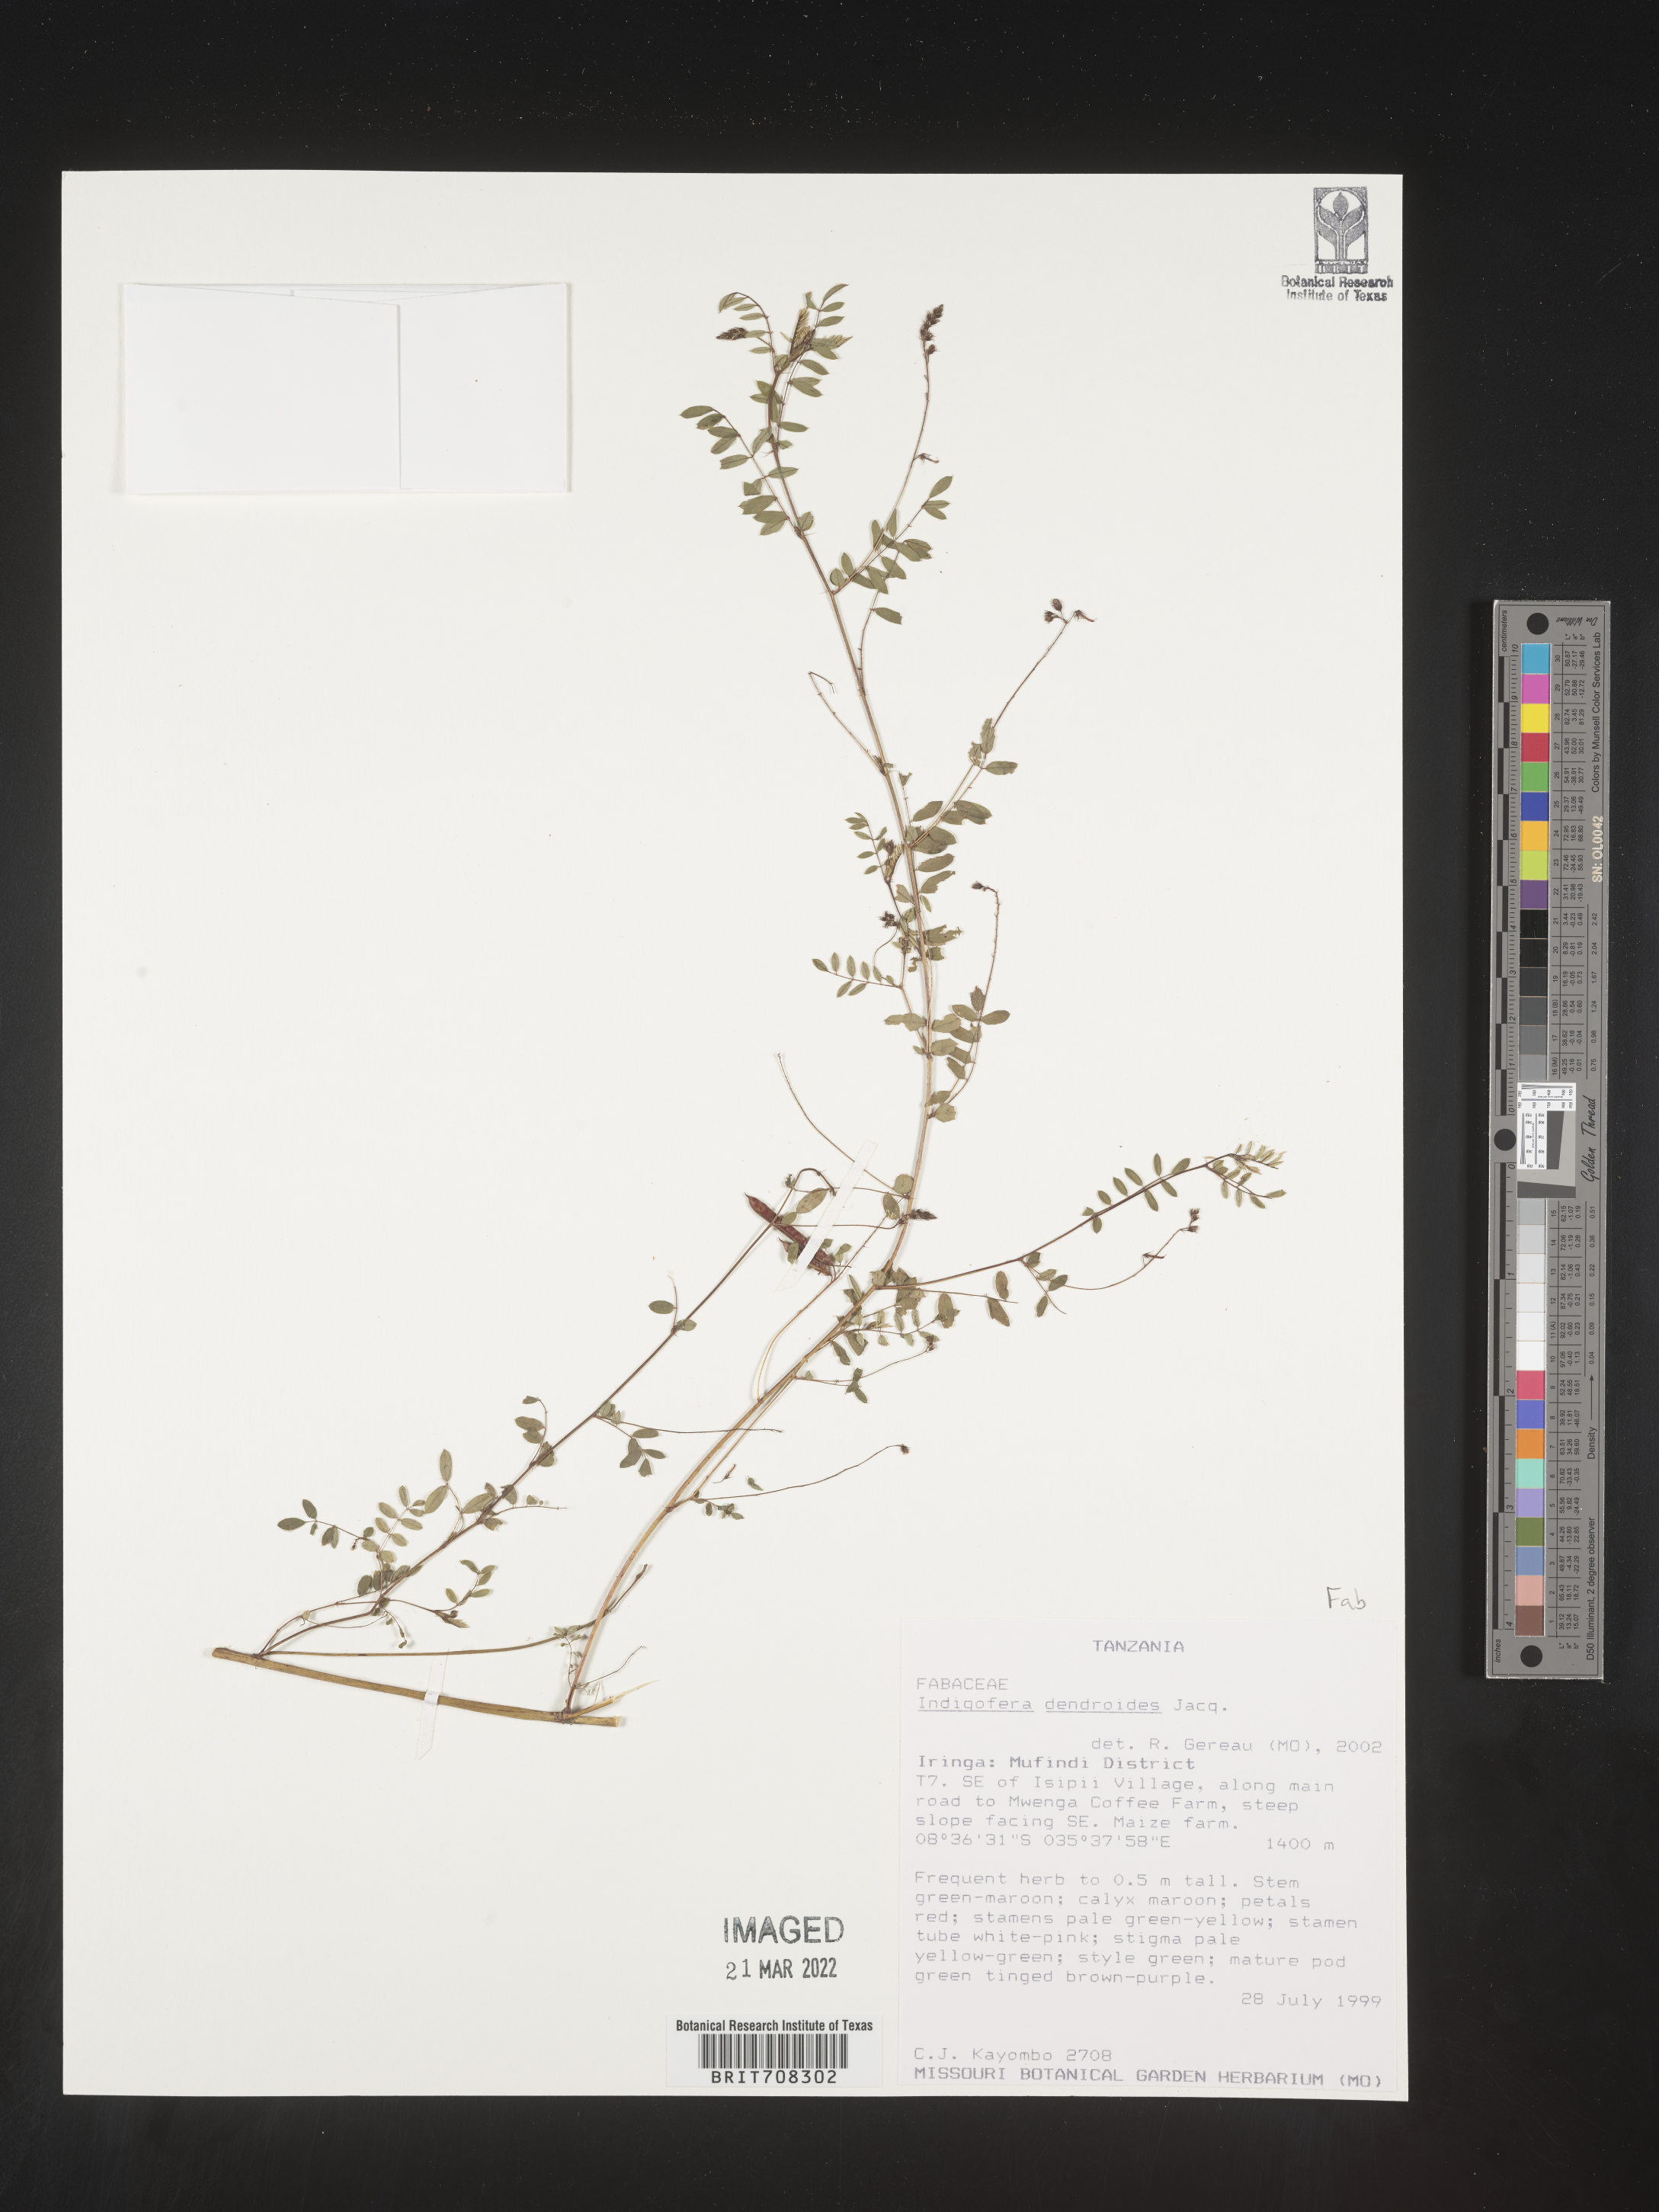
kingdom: Plantae
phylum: Tracheophyta
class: Magnoliopsida
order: Fabales
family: Fabaceae
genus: Indigofera
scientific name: Indigofera
